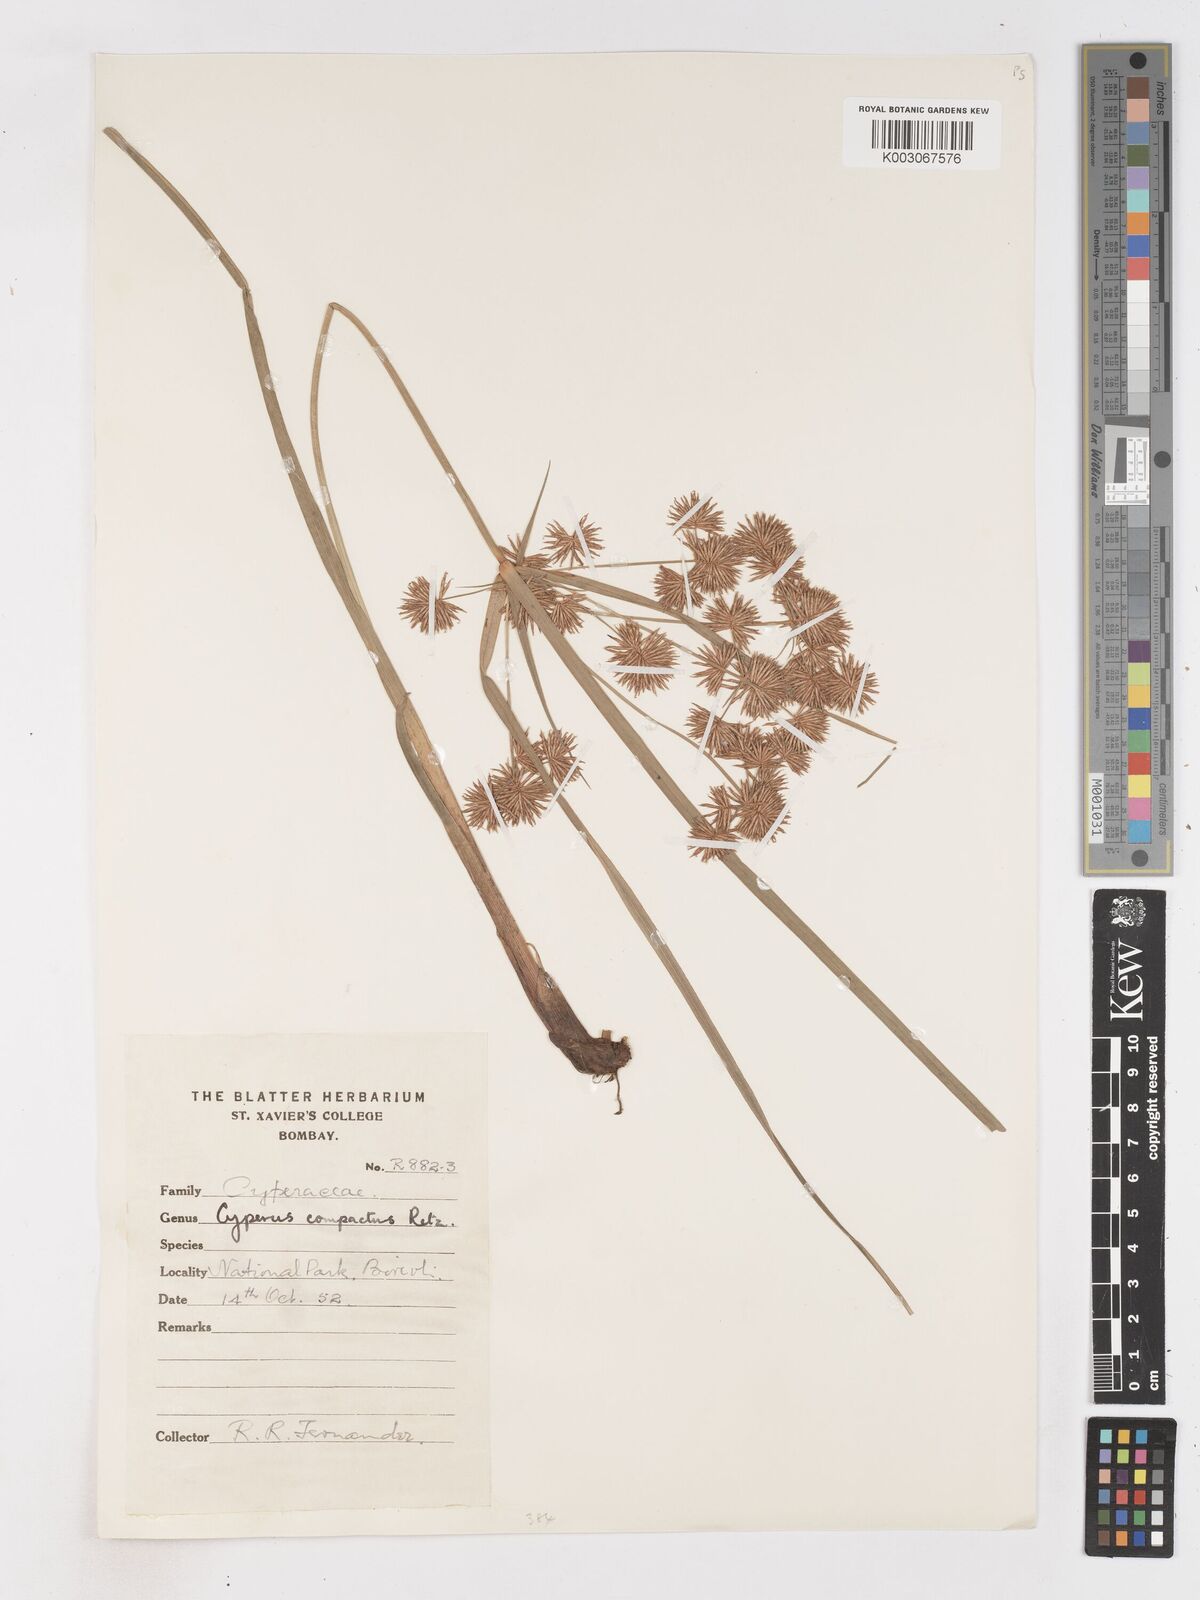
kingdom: Plantae
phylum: Tracheophyta
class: Liliopsida
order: Poales
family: Cyperaceae
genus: Cyperus
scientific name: Cyperus compactus
